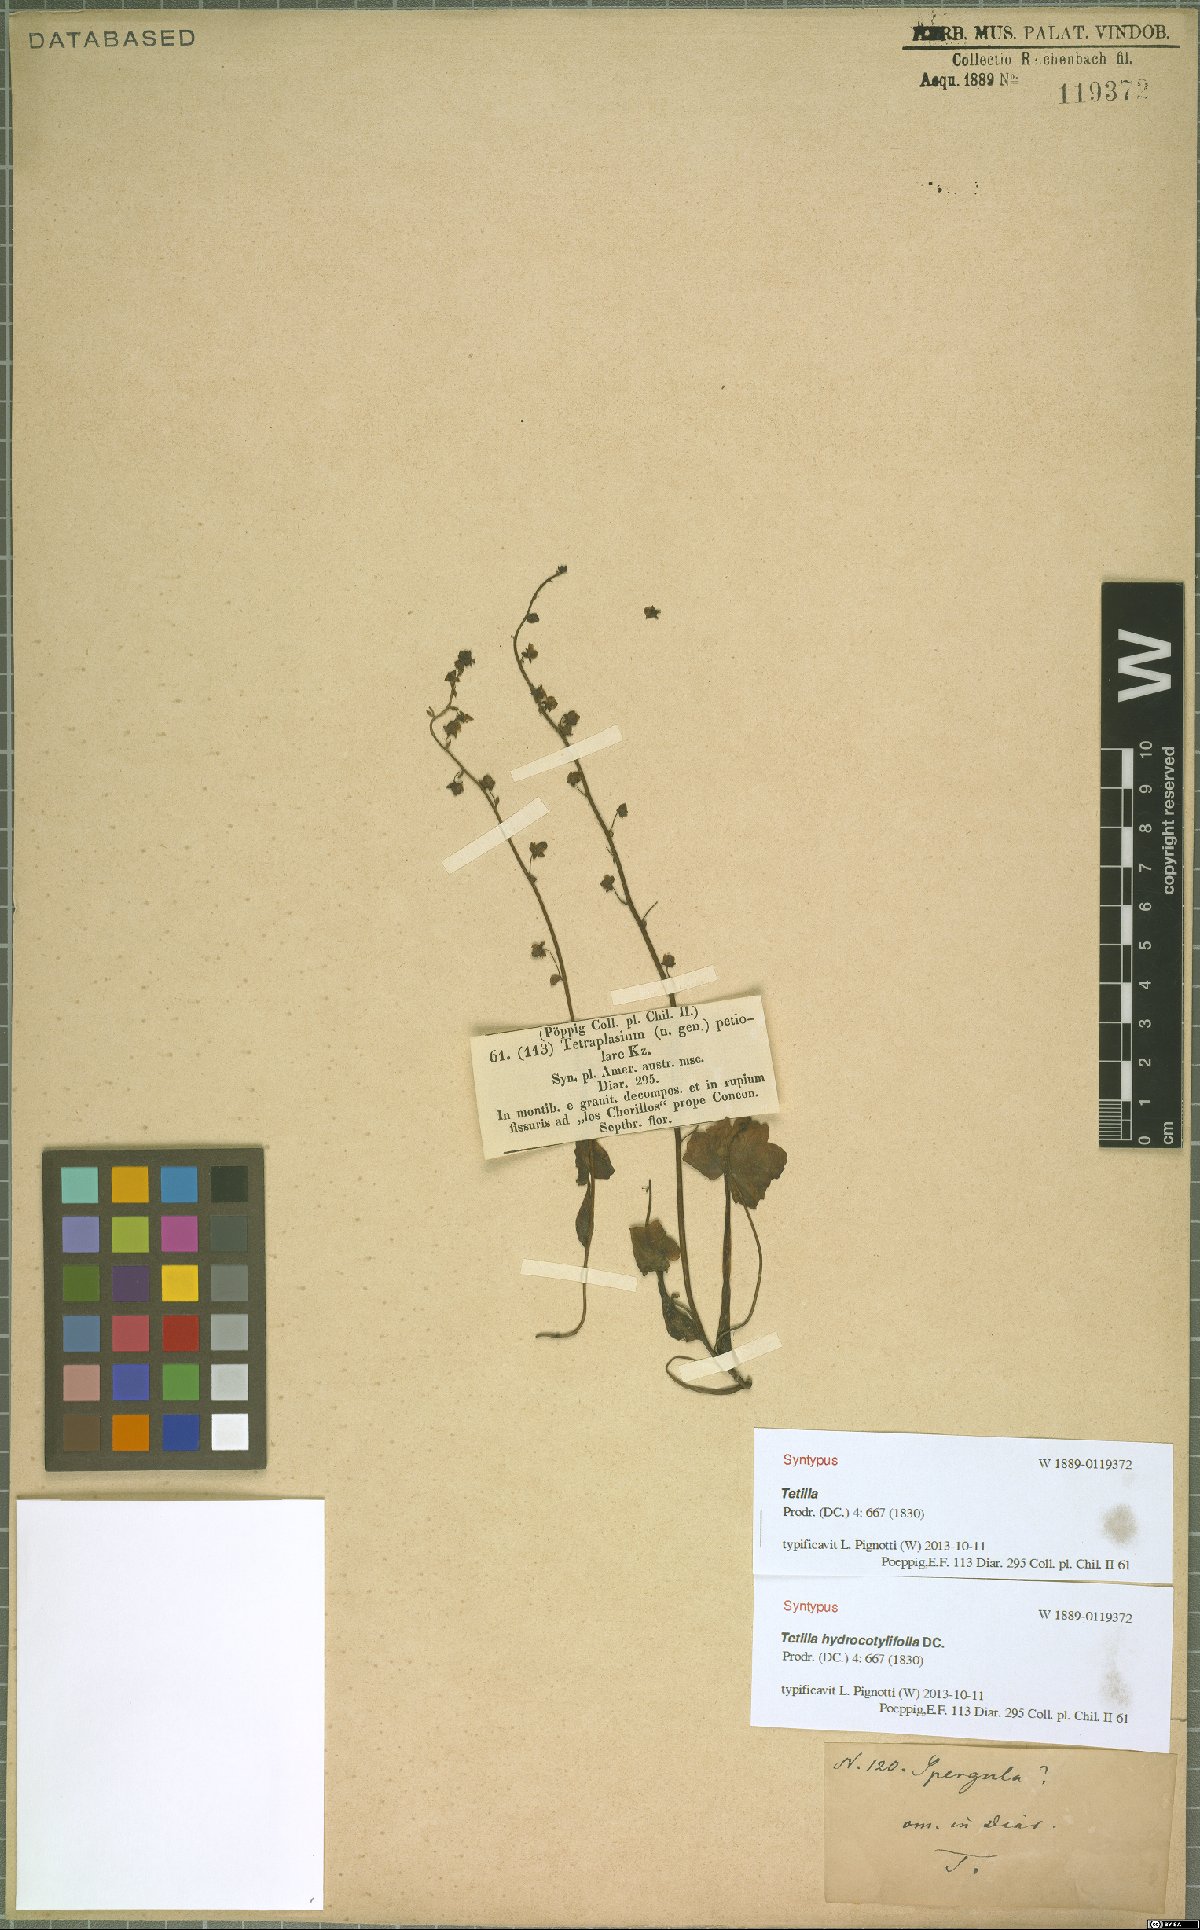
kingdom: Plantae
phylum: Tracheophyta
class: Magnoliopsida
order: Geraniales
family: Francoaceae
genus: Tetilla
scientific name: Tetilla hydrocotylifolia
